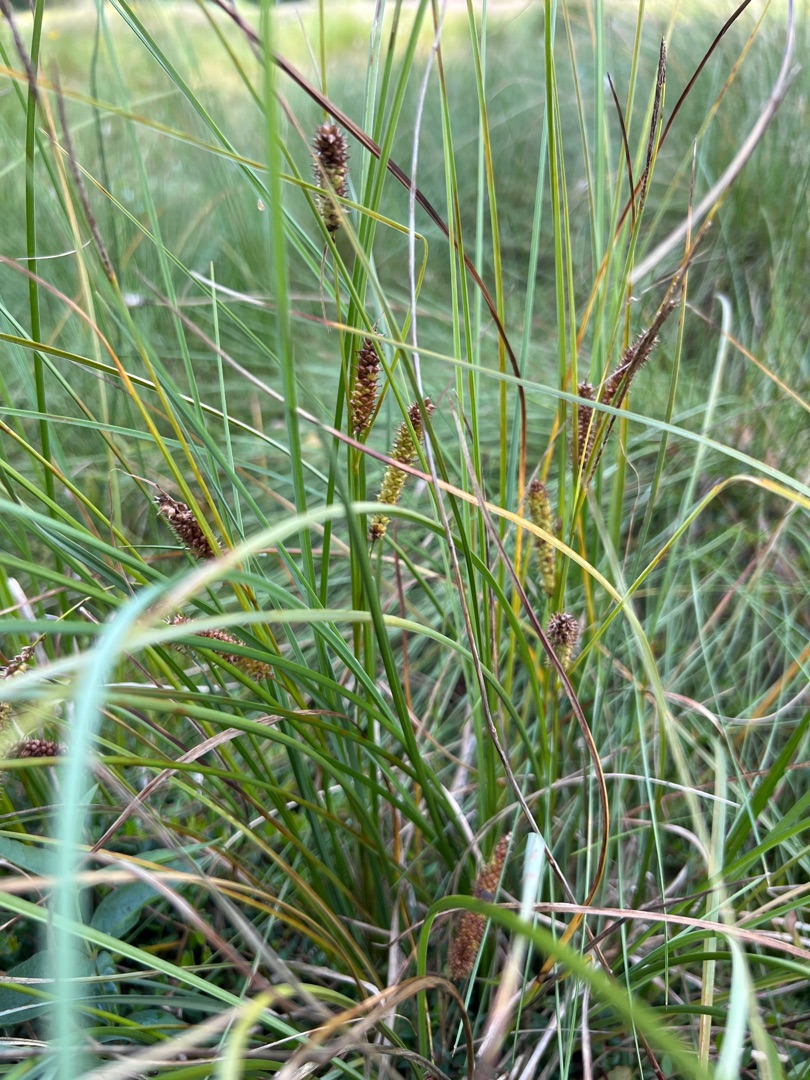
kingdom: Plantae
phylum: Tracheophyta
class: Liliopsida
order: Poales
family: Cyperaceae
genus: Carex
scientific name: Carex rostrata
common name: Næb-star
